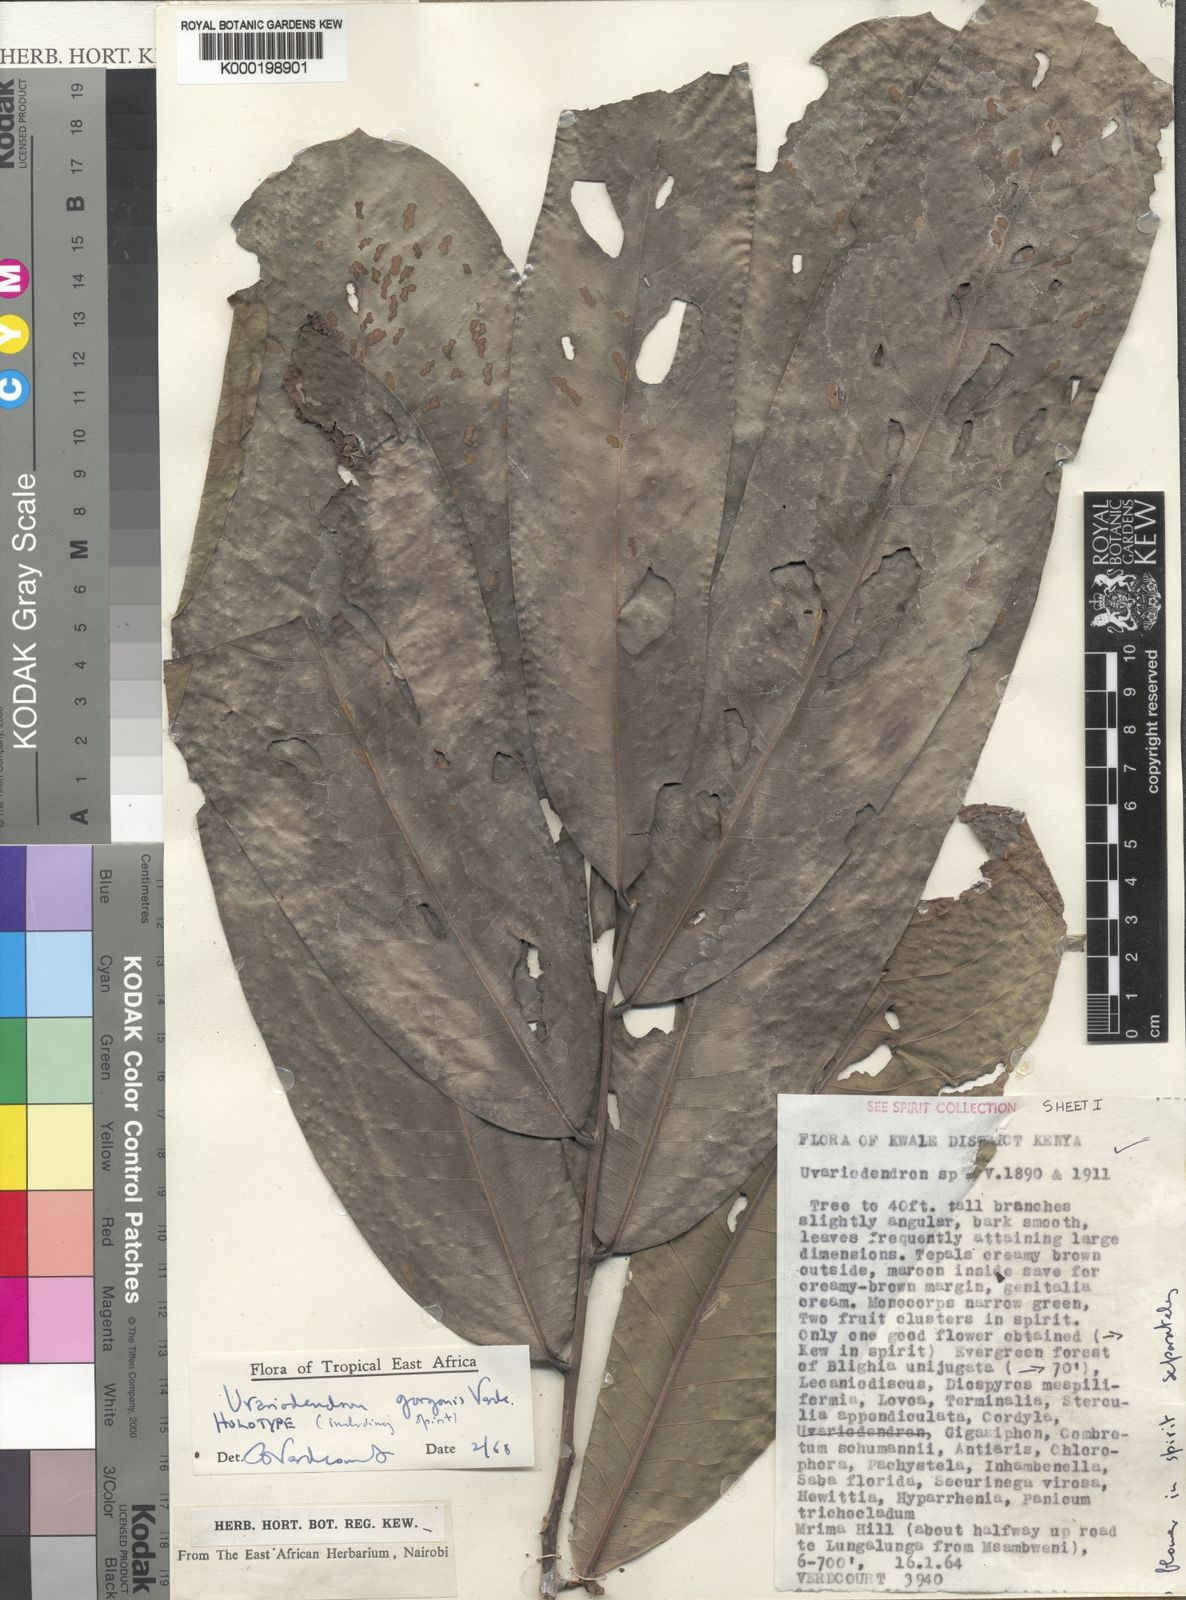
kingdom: Plantae
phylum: Tracheophyta
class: Magnoliopsida
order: Magnoliales
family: Annonaceae
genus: Uvariodendron
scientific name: Uvariodendron gorgonis
